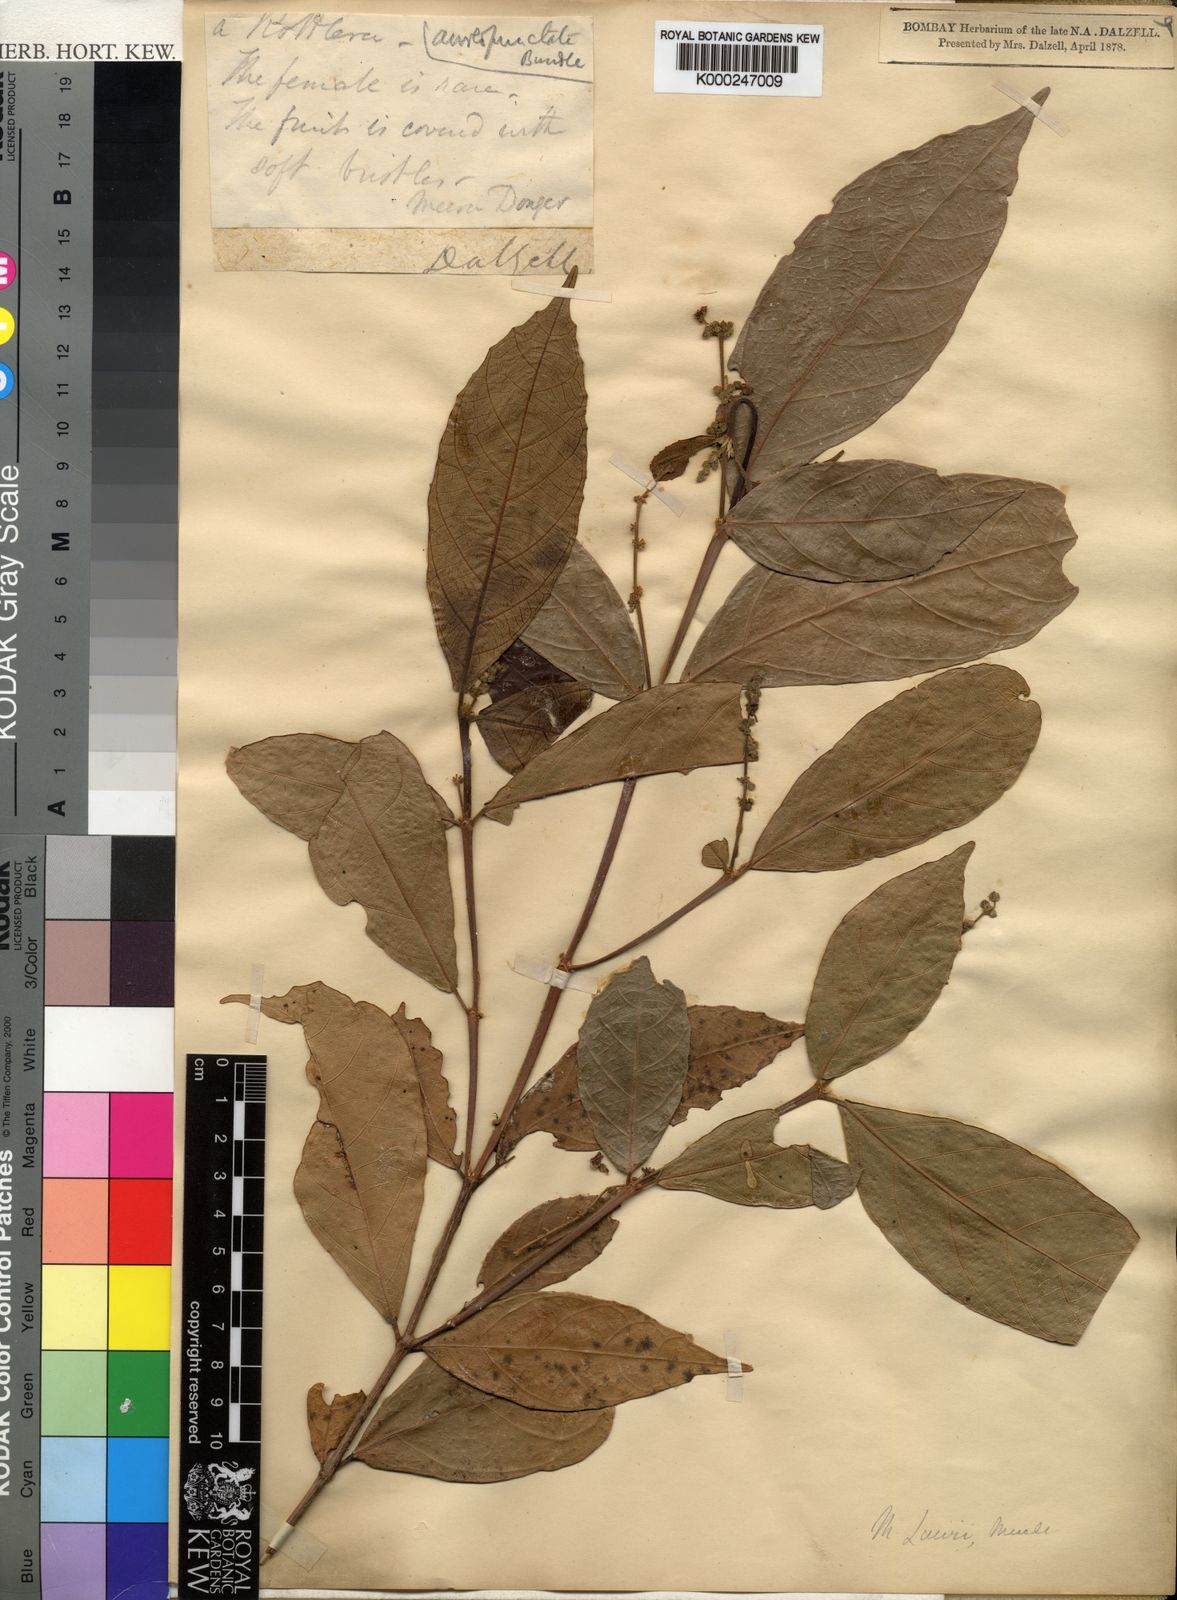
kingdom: Plantae
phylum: Tracheophyta
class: Magnoliopsida
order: Malpighiales
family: Euphorbiaceae
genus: Mallotus
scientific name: Mallotus resinosus
